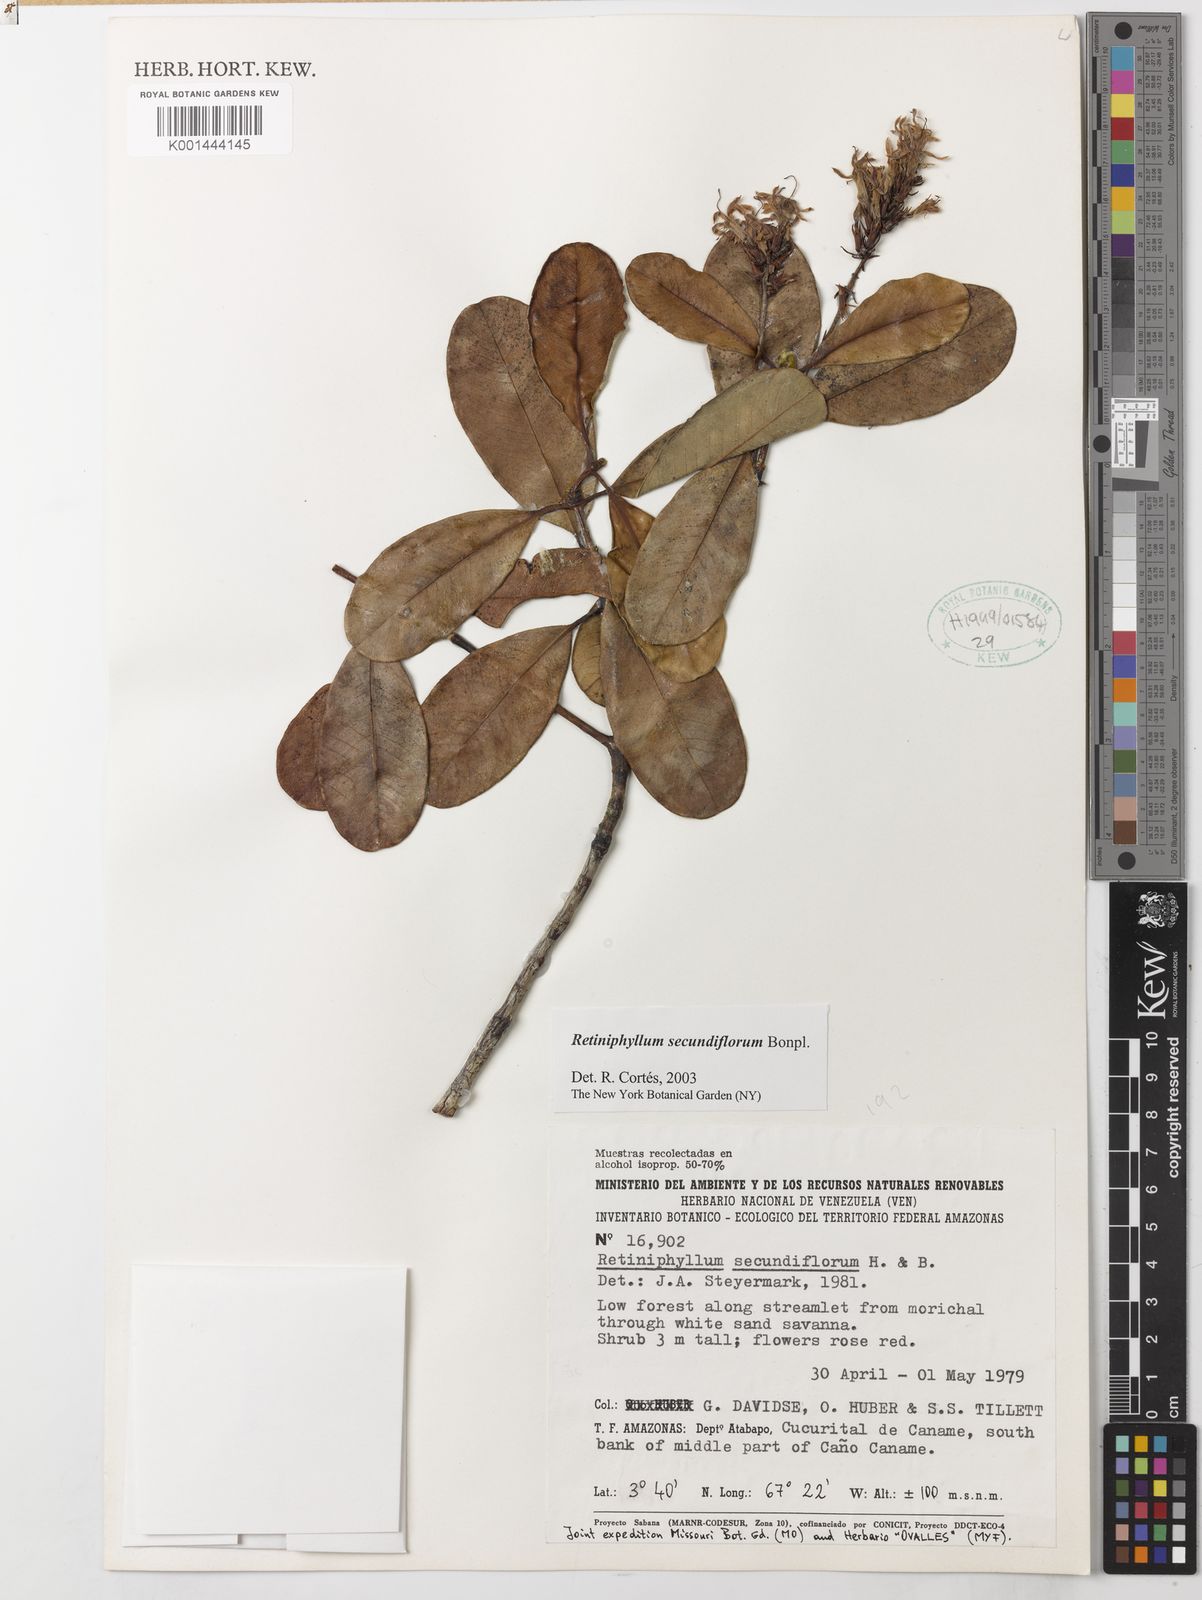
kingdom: Plantae
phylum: Tracheophyta
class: Magnoliopsida
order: Gentianales
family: Rubiaceae
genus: Retiniphyllum
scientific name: Retiniphyllum secundiflorum
